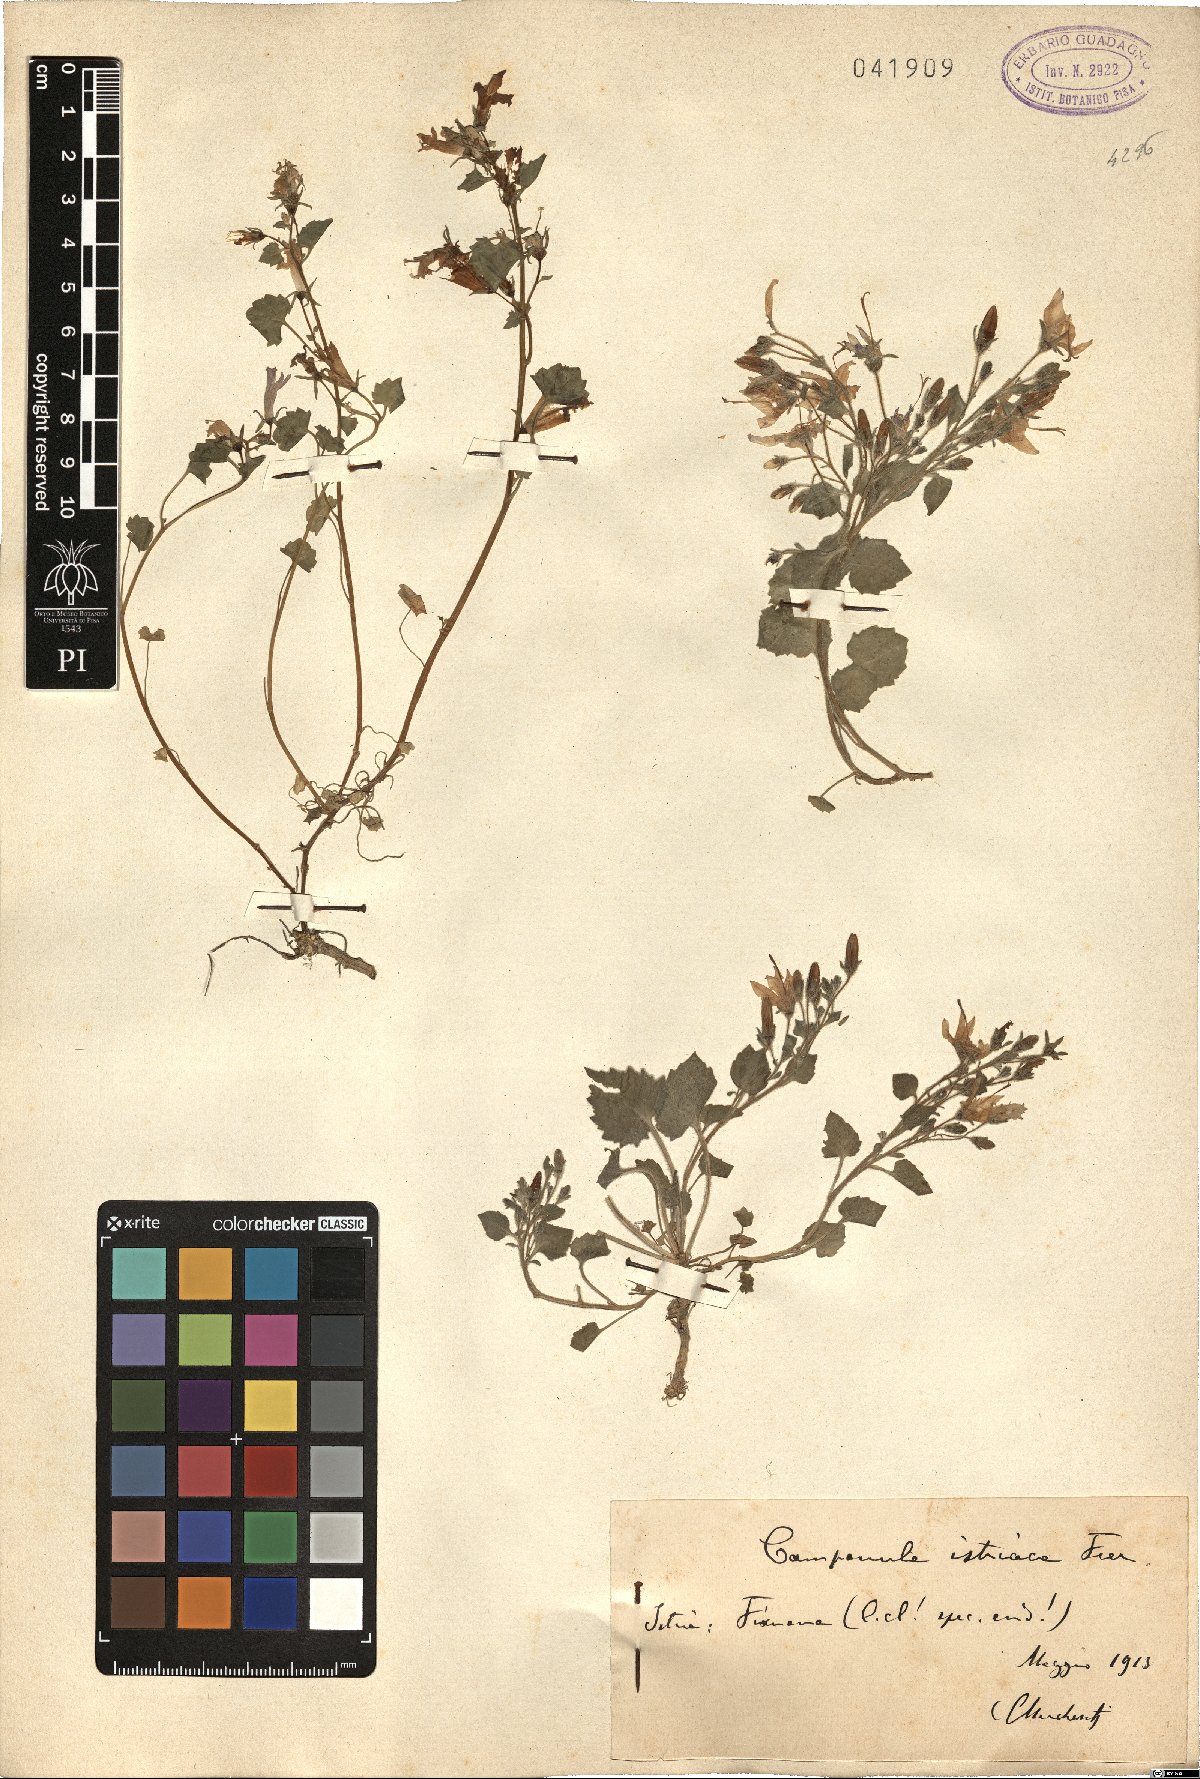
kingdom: Plantae
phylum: Tracheophyta
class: Magnoliopsida
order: Asterales
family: Campanulaceae
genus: Campanula
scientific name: Campanula fenestrellata
